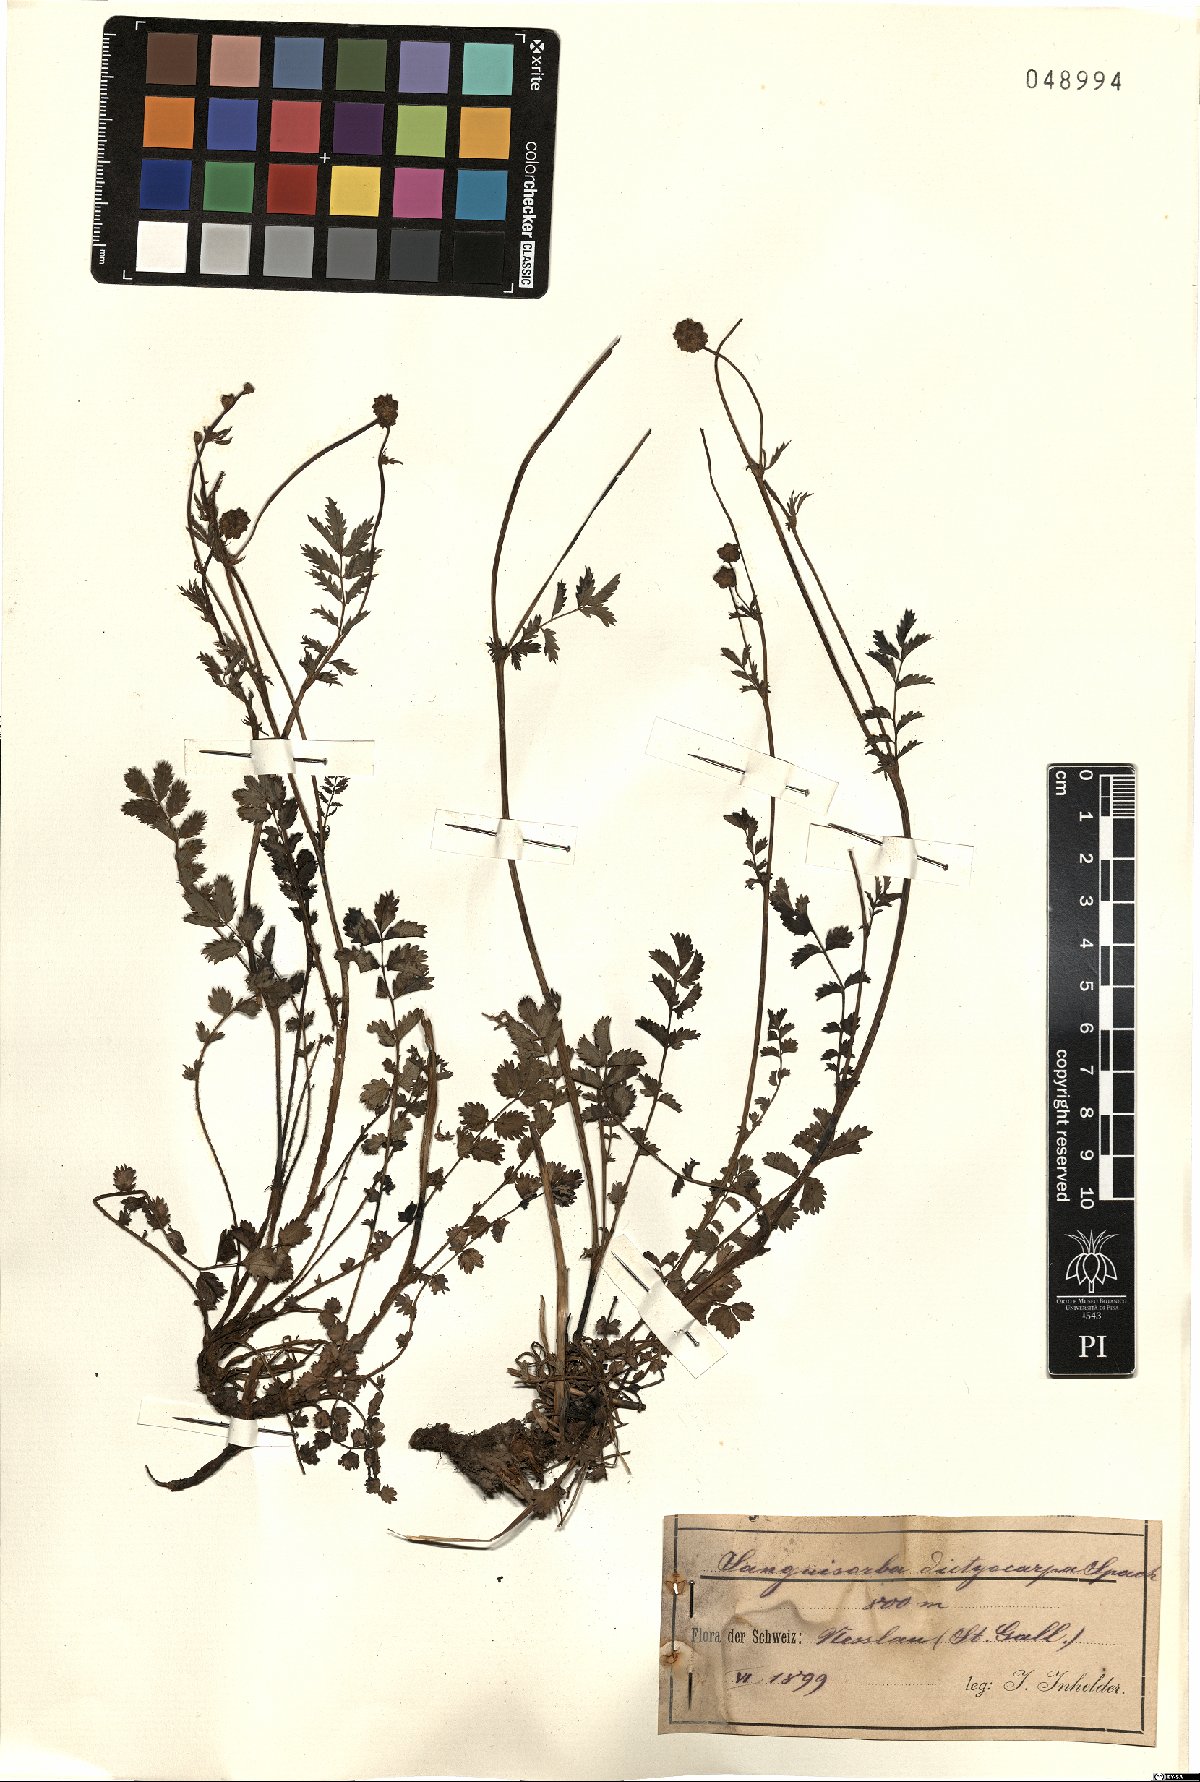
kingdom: Plantae
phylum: Tracheophyta
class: Magnoliopsida
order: Rosales
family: Rosaceae
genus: Poterium
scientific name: Poterium sanguisorba
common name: Salad burnet
